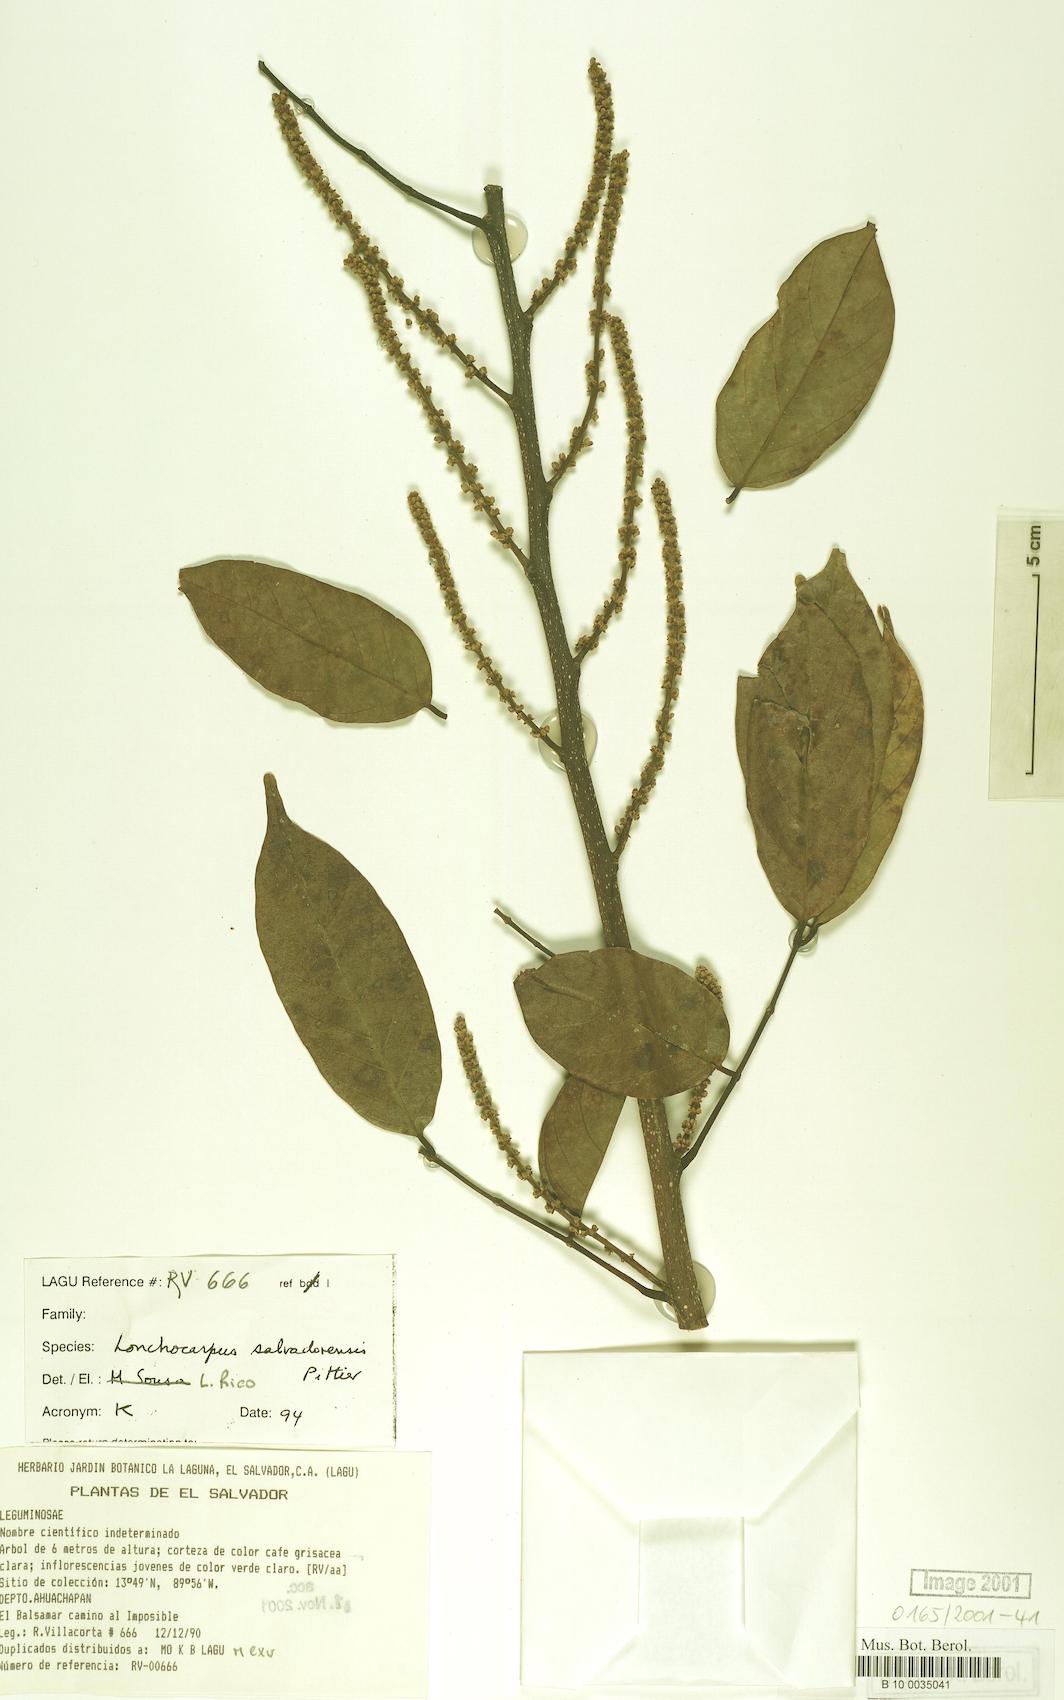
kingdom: Plantae
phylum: Tracheophyta
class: Magnoliopsida
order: Fabales
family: Fabaceae
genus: Lonchocarpus
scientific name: Lonchocarpus salvadorensis
